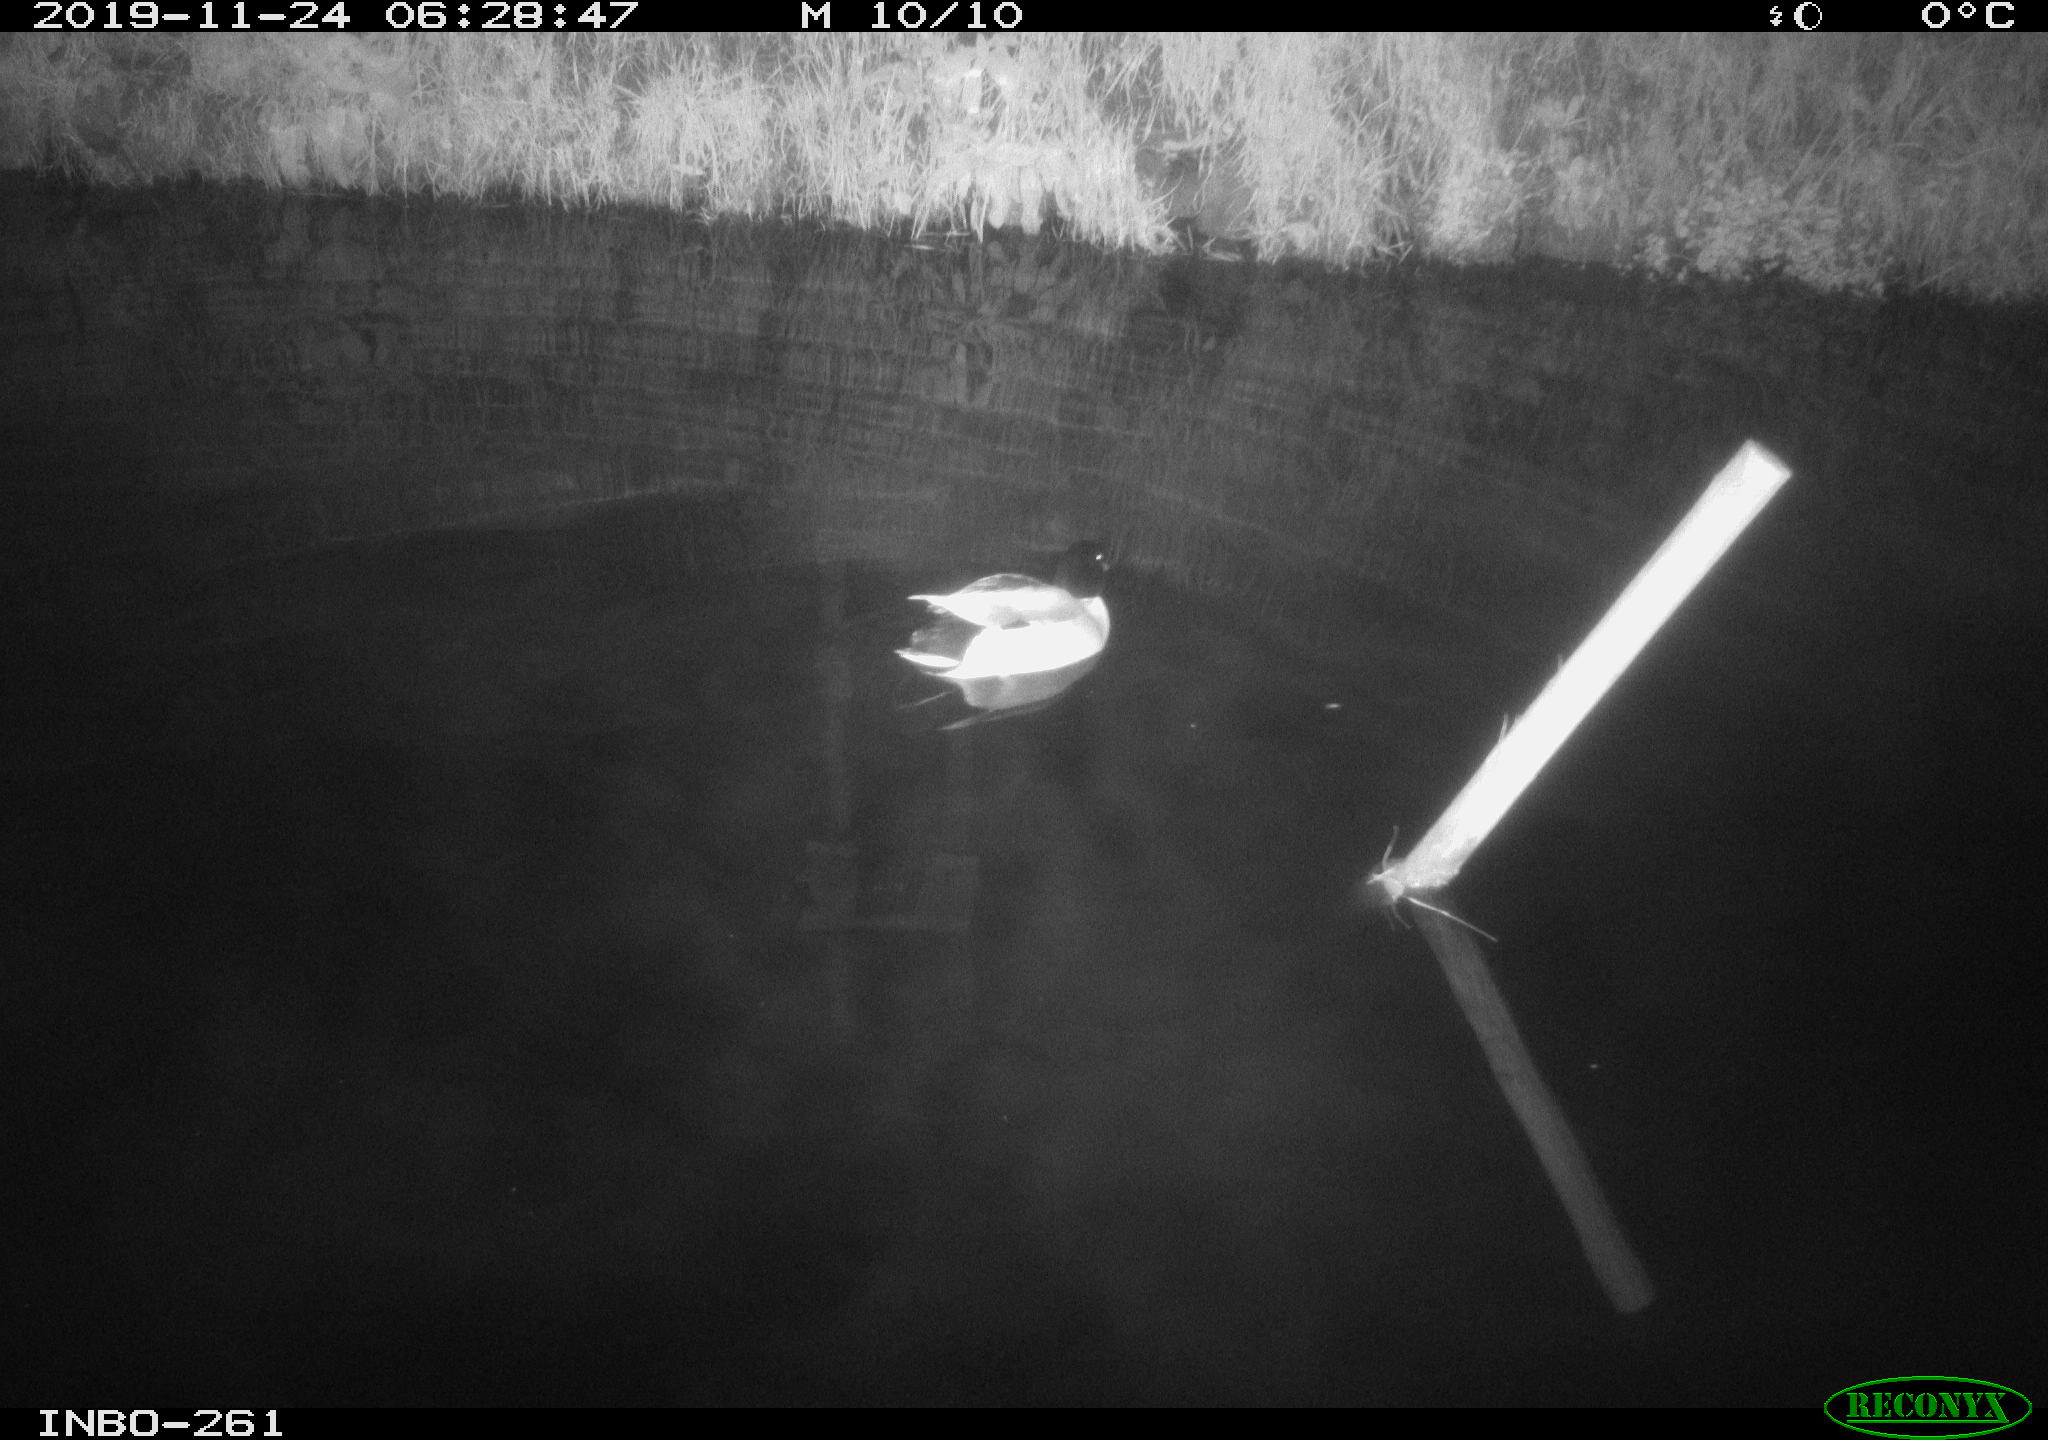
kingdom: Animalia
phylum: Chordata
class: Aves
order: Anseriformes
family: Anatidae
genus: Anas
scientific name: Anas platyrhynchos
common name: Mallard
